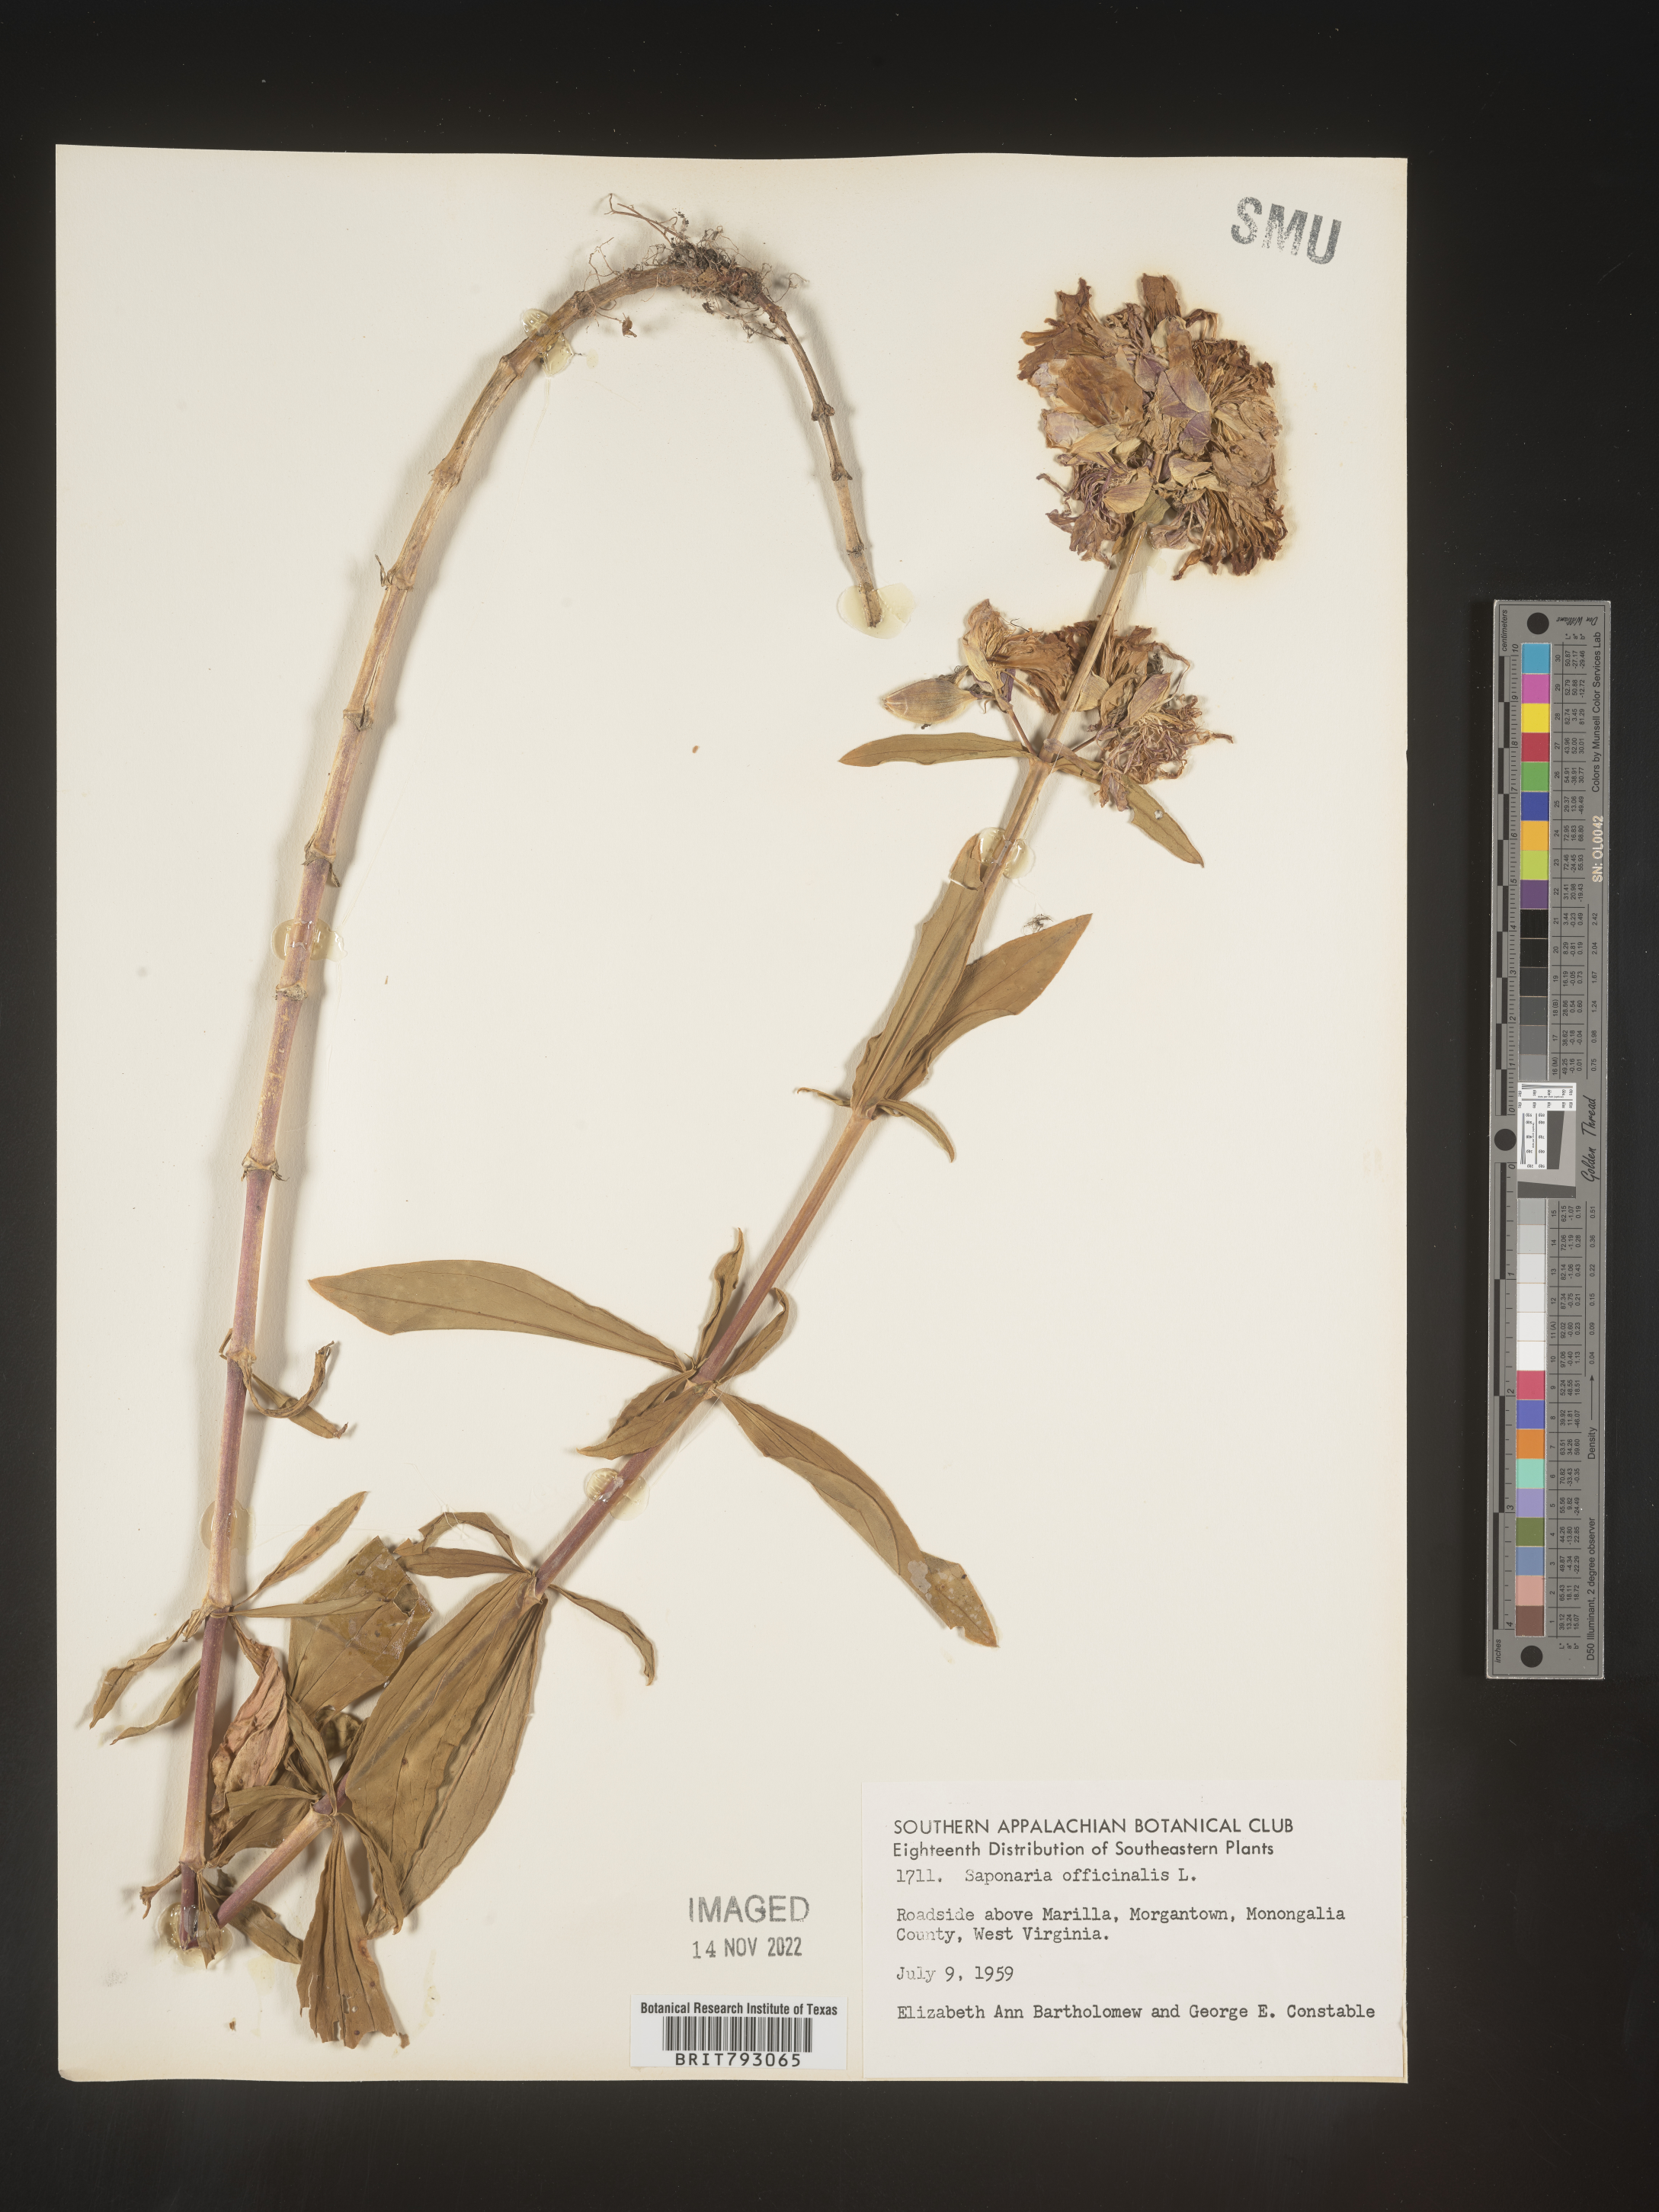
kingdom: Plantae
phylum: Tracheophyta
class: Magnoliopsida
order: Caryophyllales
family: Caryophyllaceae
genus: Saponaria
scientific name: Saponaria officinalis
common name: Soapwort
